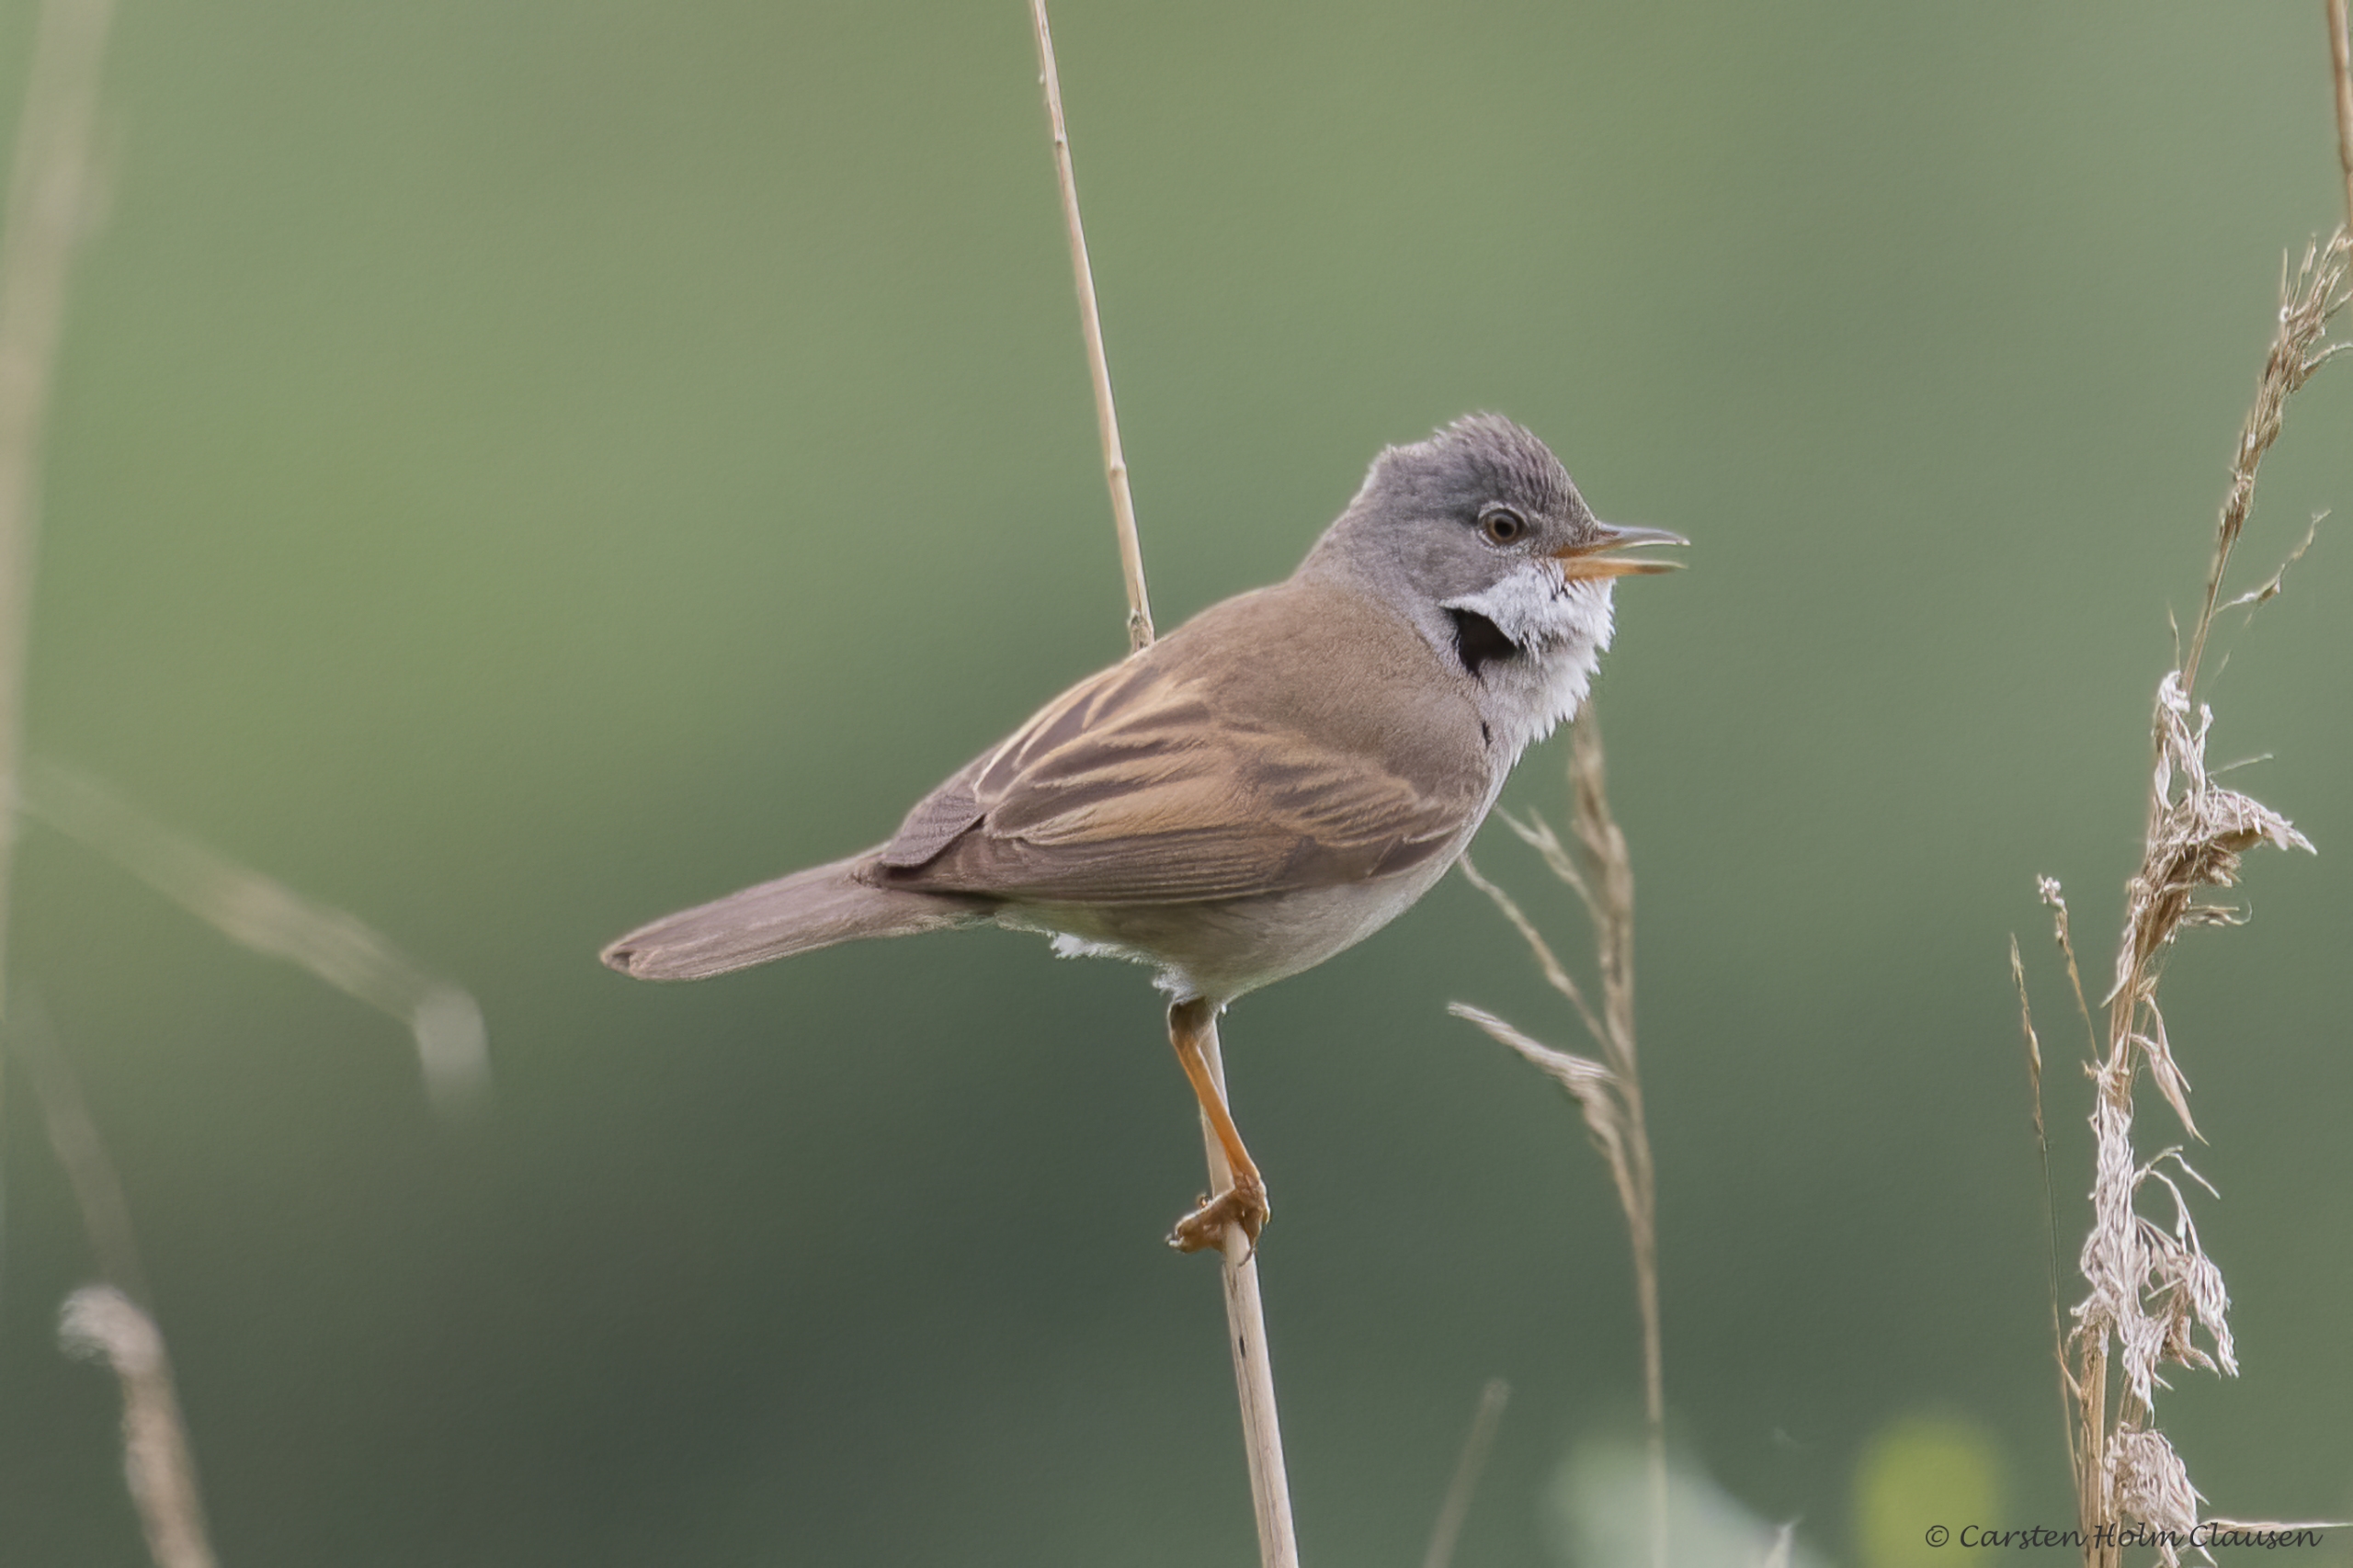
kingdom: Animalia
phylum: Chordata
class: Aves
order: Passeriformes
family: Sylviidae
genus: Sylvia
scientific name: Sylvia communis
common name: Tornsanger
